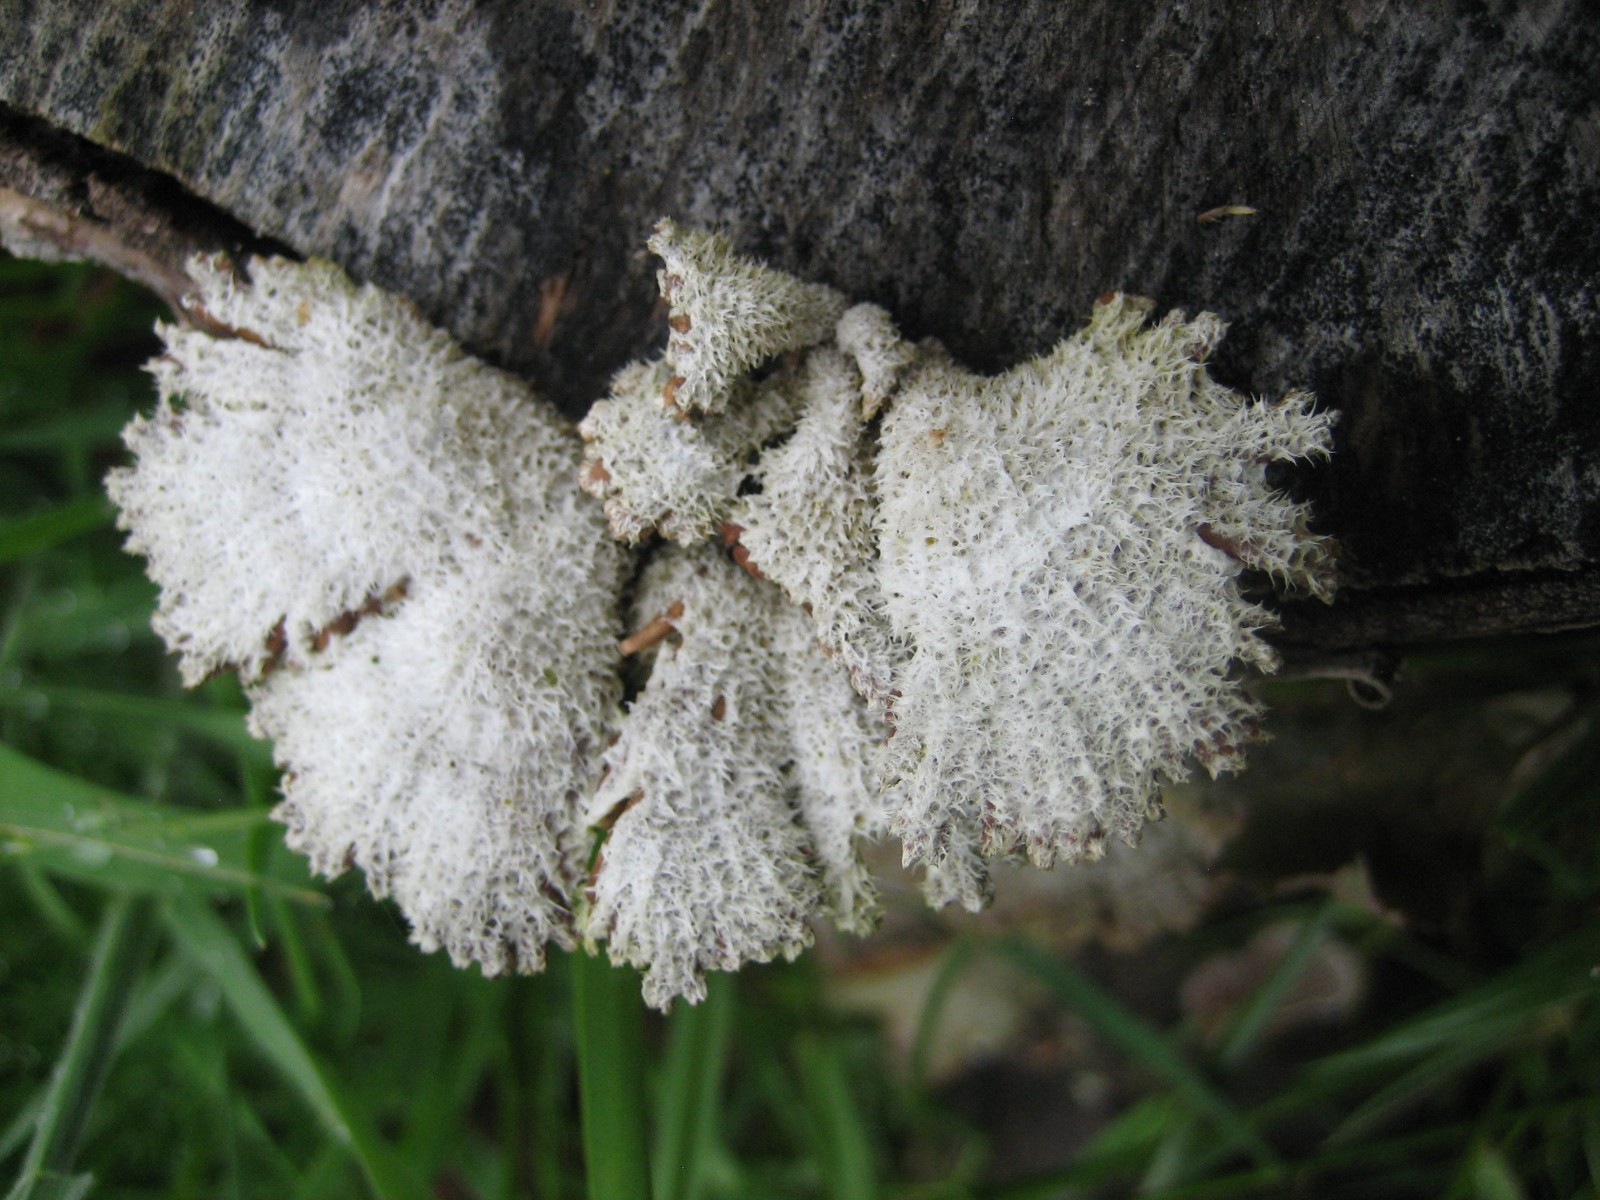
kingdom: Fungi
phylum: Basidiomycota
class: Agaricomycetes
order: Agaricales
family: Schizophyllaceae
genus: Schizophyllum
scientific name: Schizophyllum commune
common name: kløvblad
